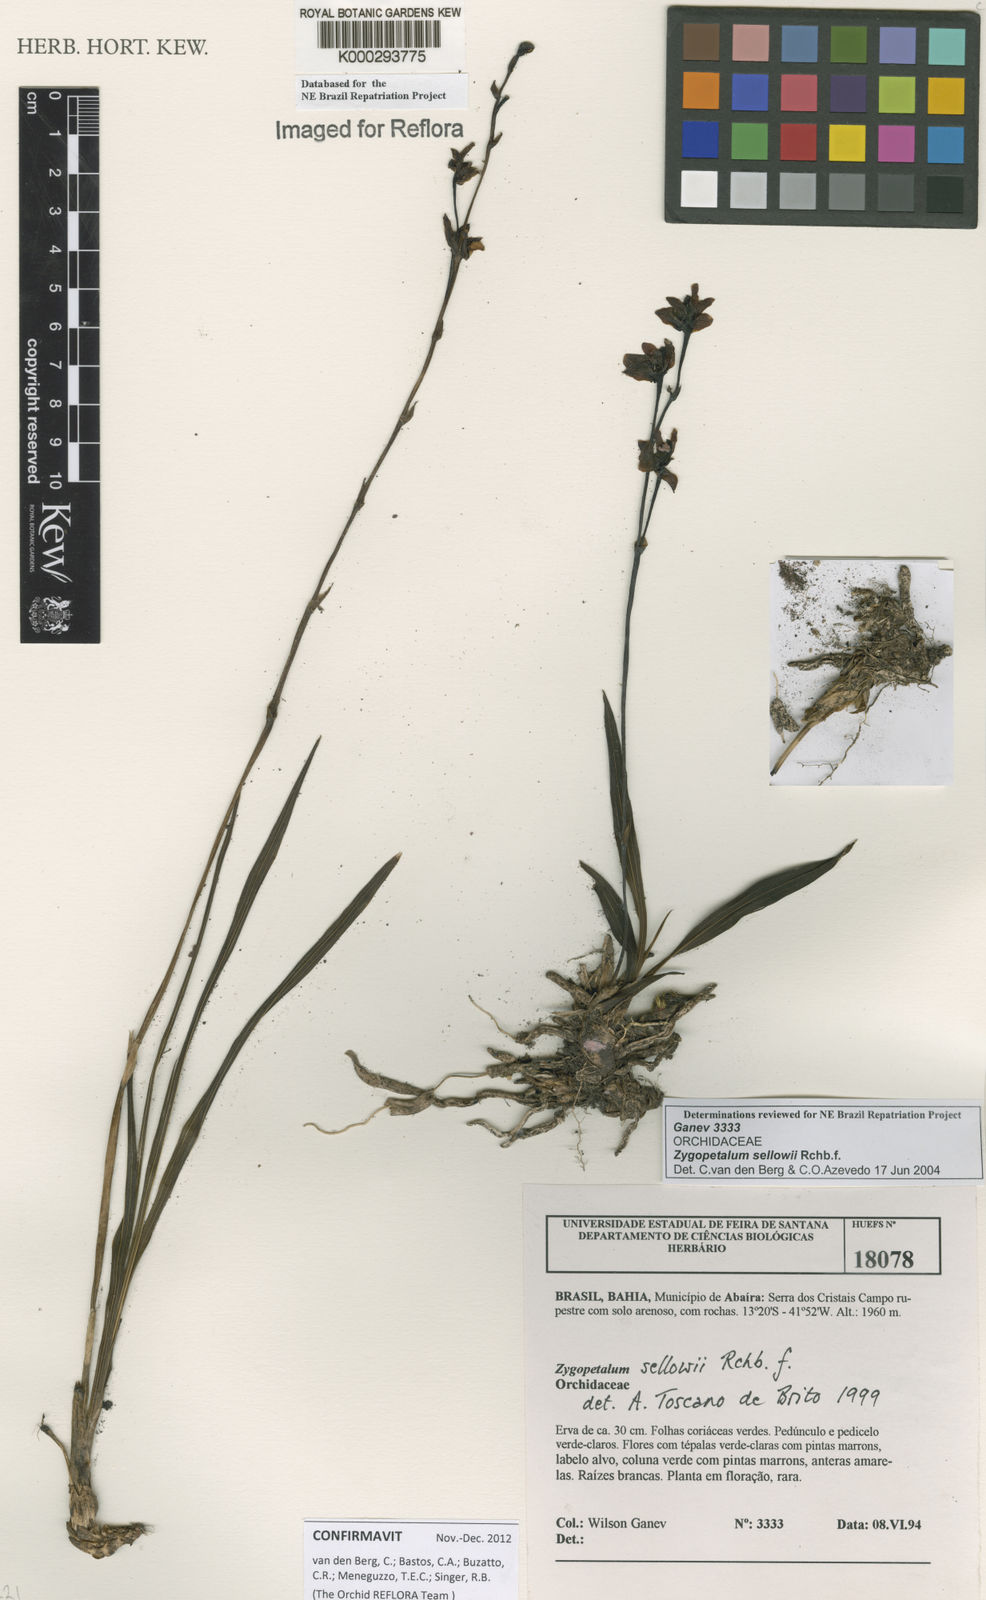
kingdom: Plantae
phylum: Tracheophyta
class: Liliopsida
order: Asparagales
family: Orchidaceae
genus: Zygopetalum
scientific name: Zygopetalum sellowii
